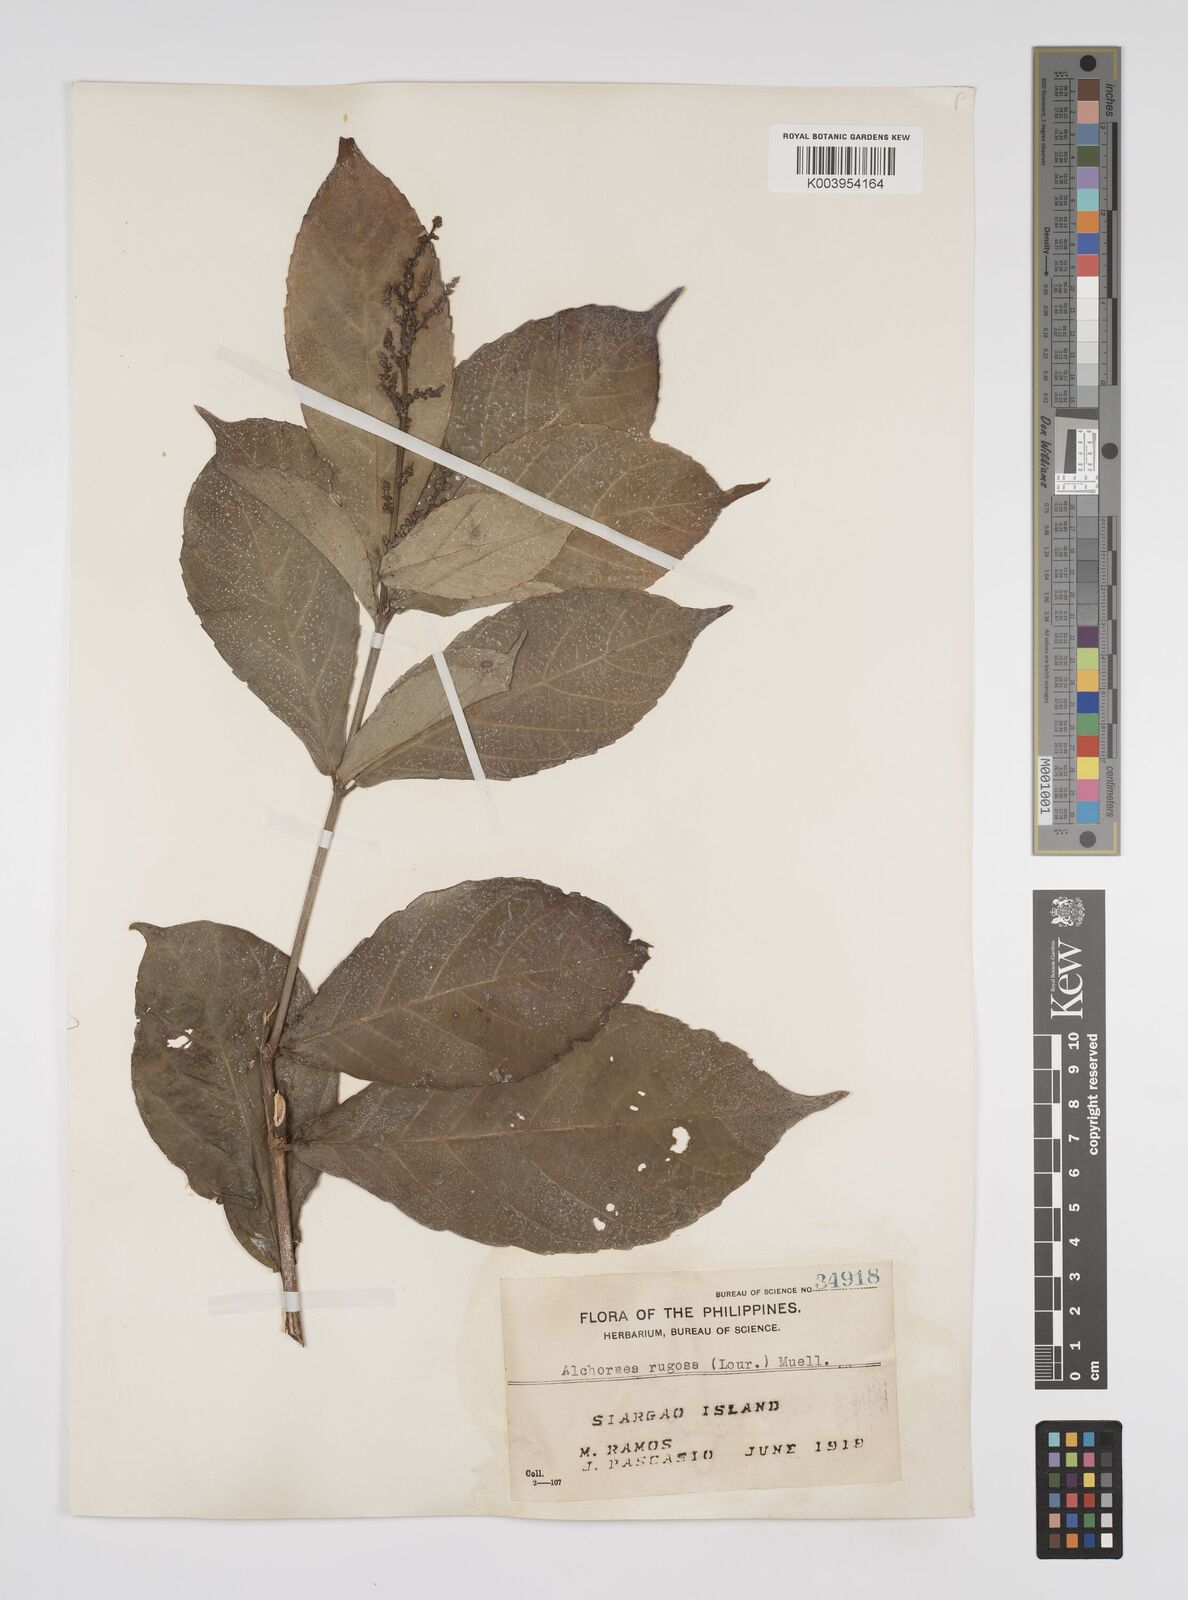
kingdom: Plantae
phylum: Tracheophyta
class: Magnoliopsida
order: Malpighiales
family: Euphorbiaceae
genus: Alchornea
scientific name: Alchornea rugosa
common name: Alchorntree
